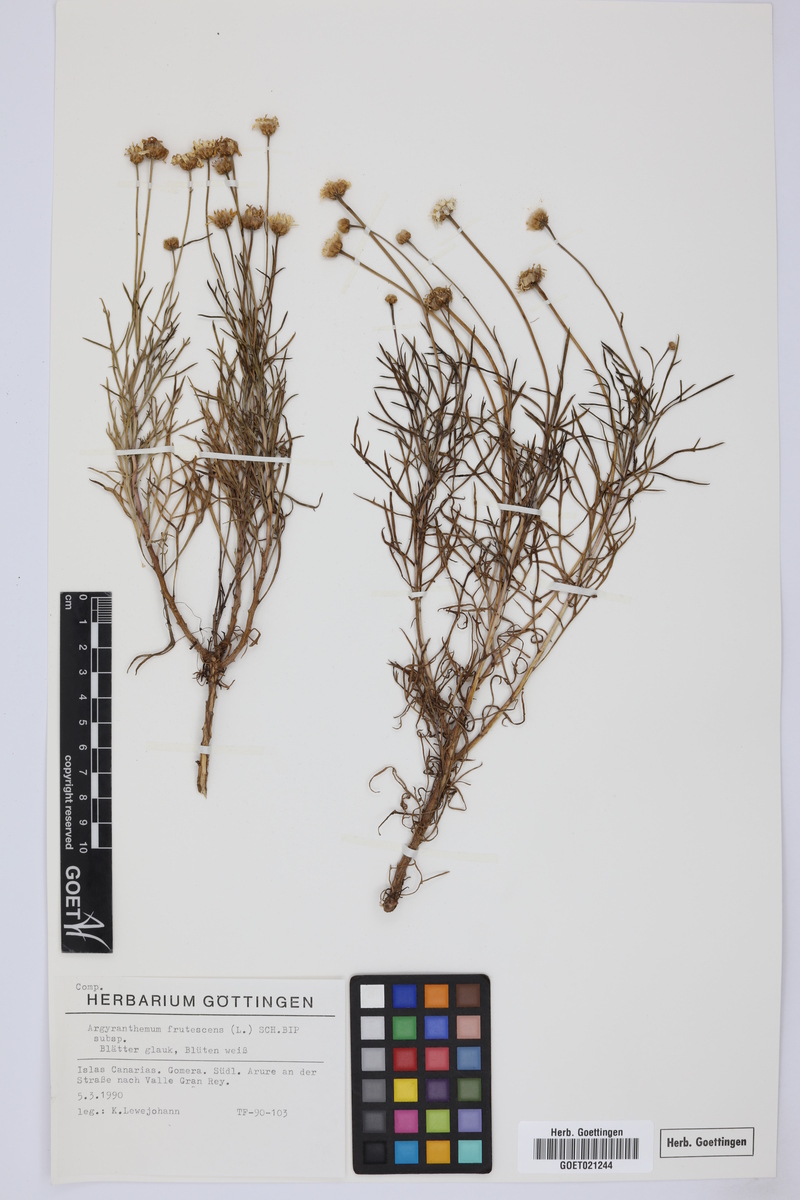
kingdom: Plantae
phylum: Tracheophyta
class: Magnoliopsida
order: Asterales
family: Asteraceae
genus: Argyranthemum
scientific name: Argyranthemum frutescens
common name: Paris daisy
